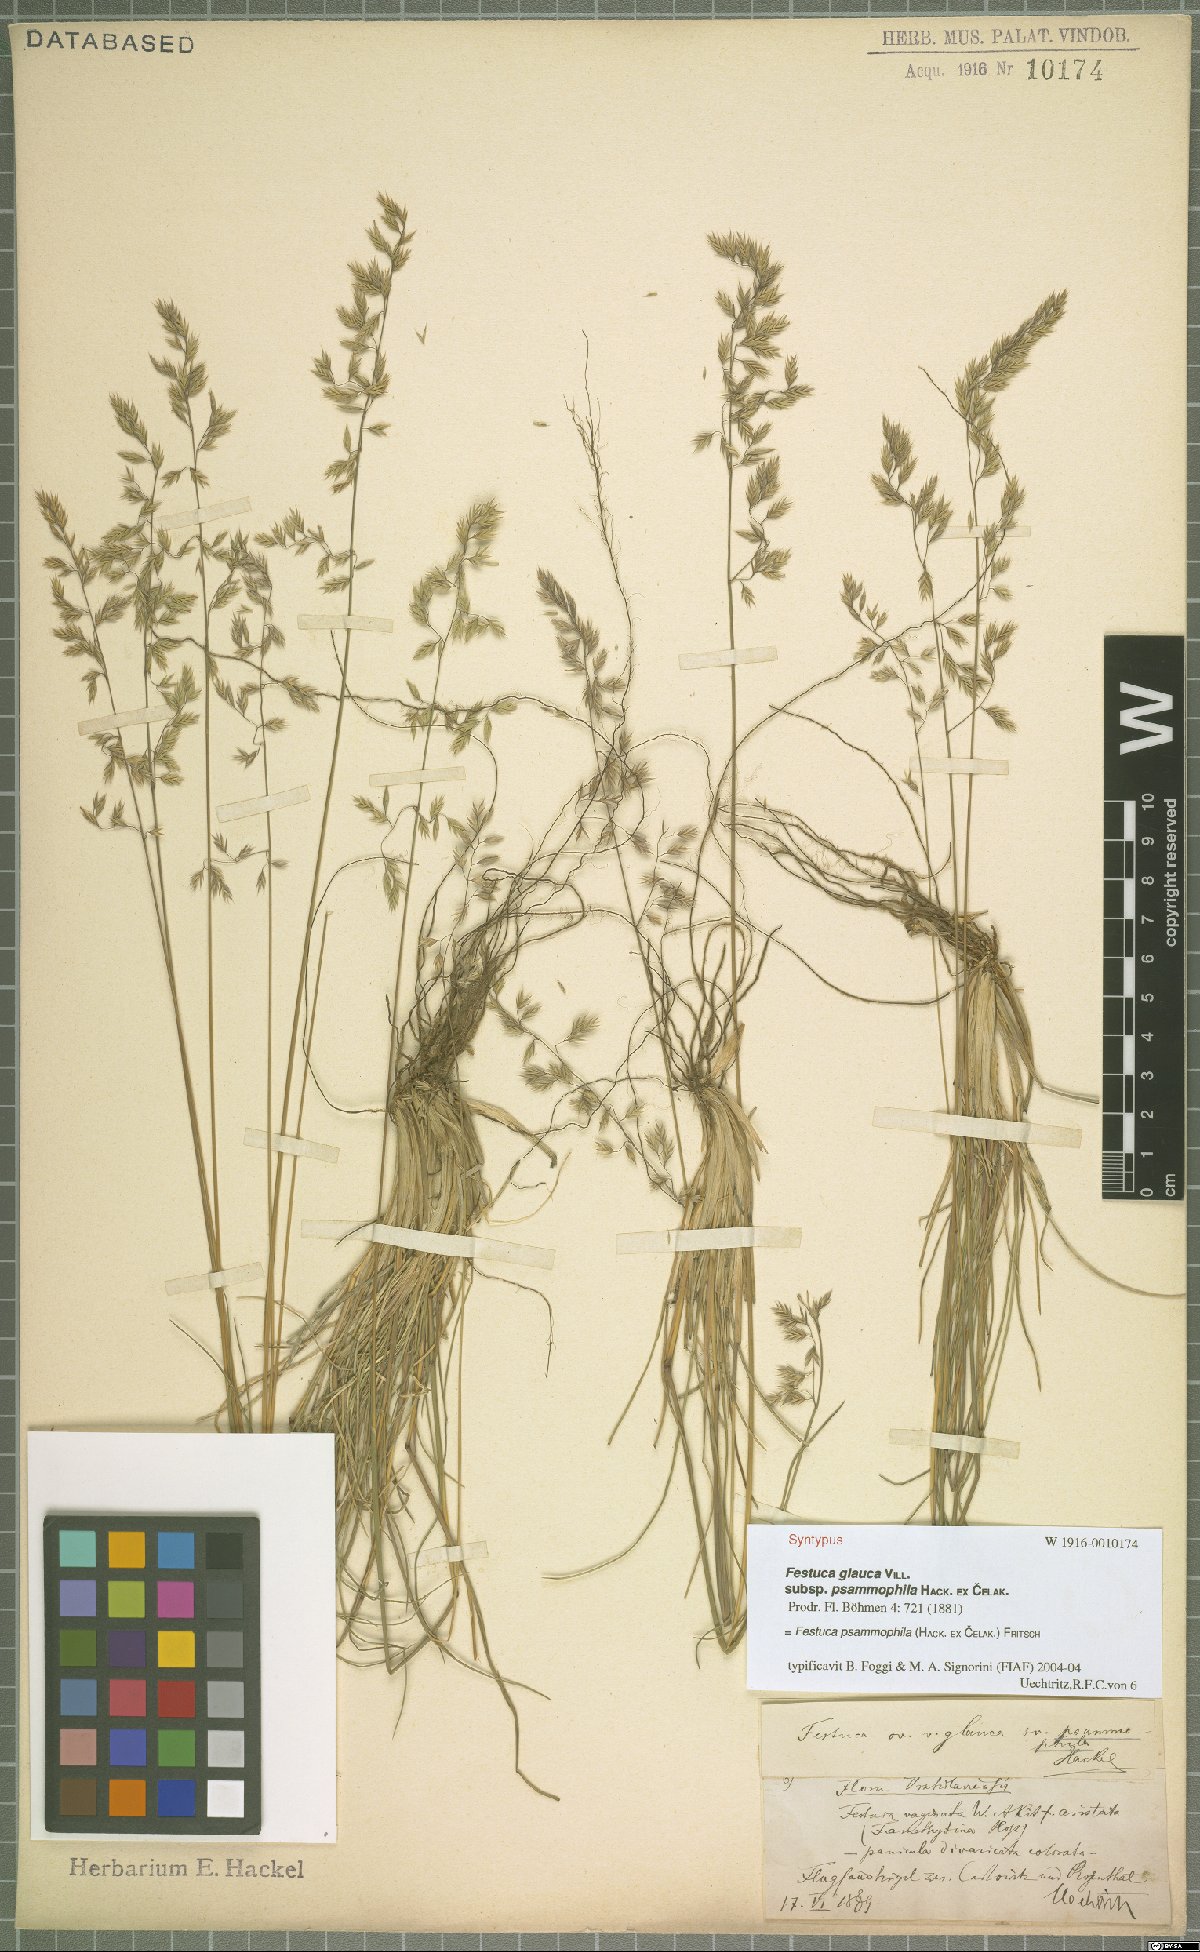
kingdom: Plantae
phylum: Tracheophyta
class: Liliopsida
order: Poales
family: Poaceae
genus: Festuca
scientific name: Festuca psammophila
